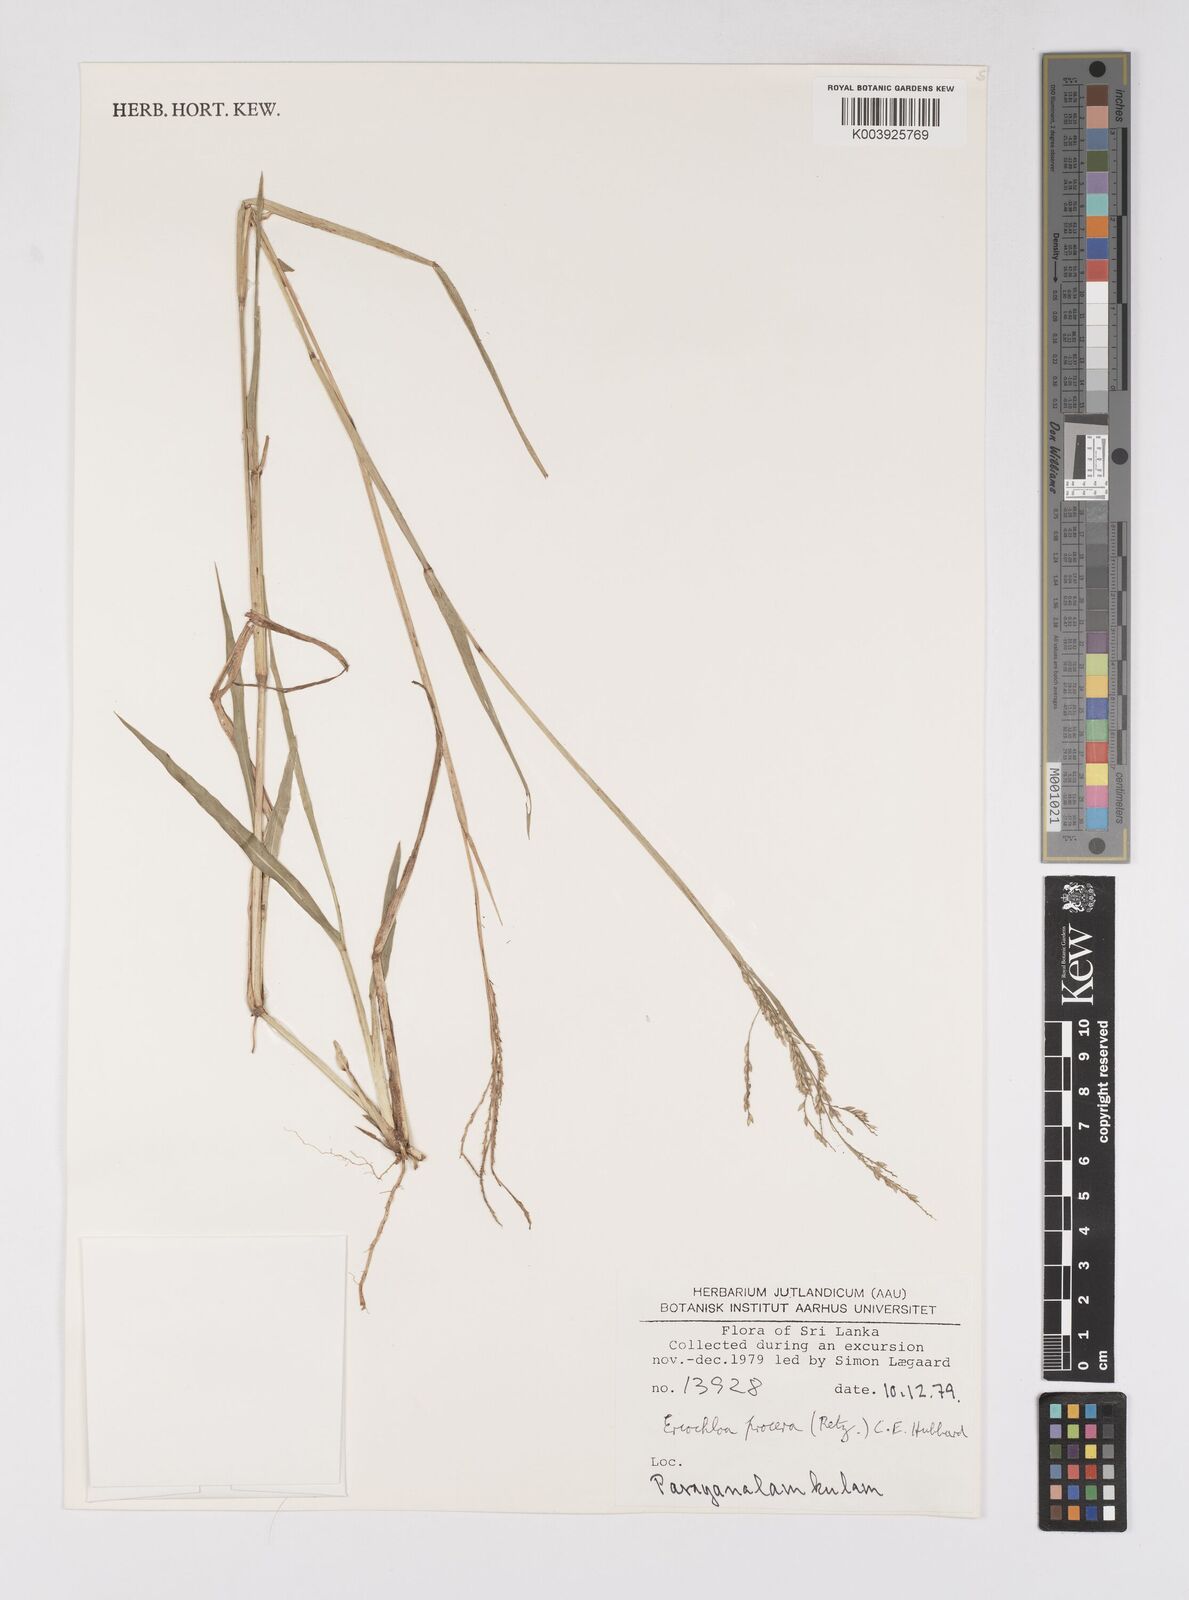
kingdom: Plantae
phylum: Tracheophyta
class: Liliopsida
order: Poales
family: Poaceae
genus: Eriochloa
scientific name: Eriochloa procera
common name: Spring grass
